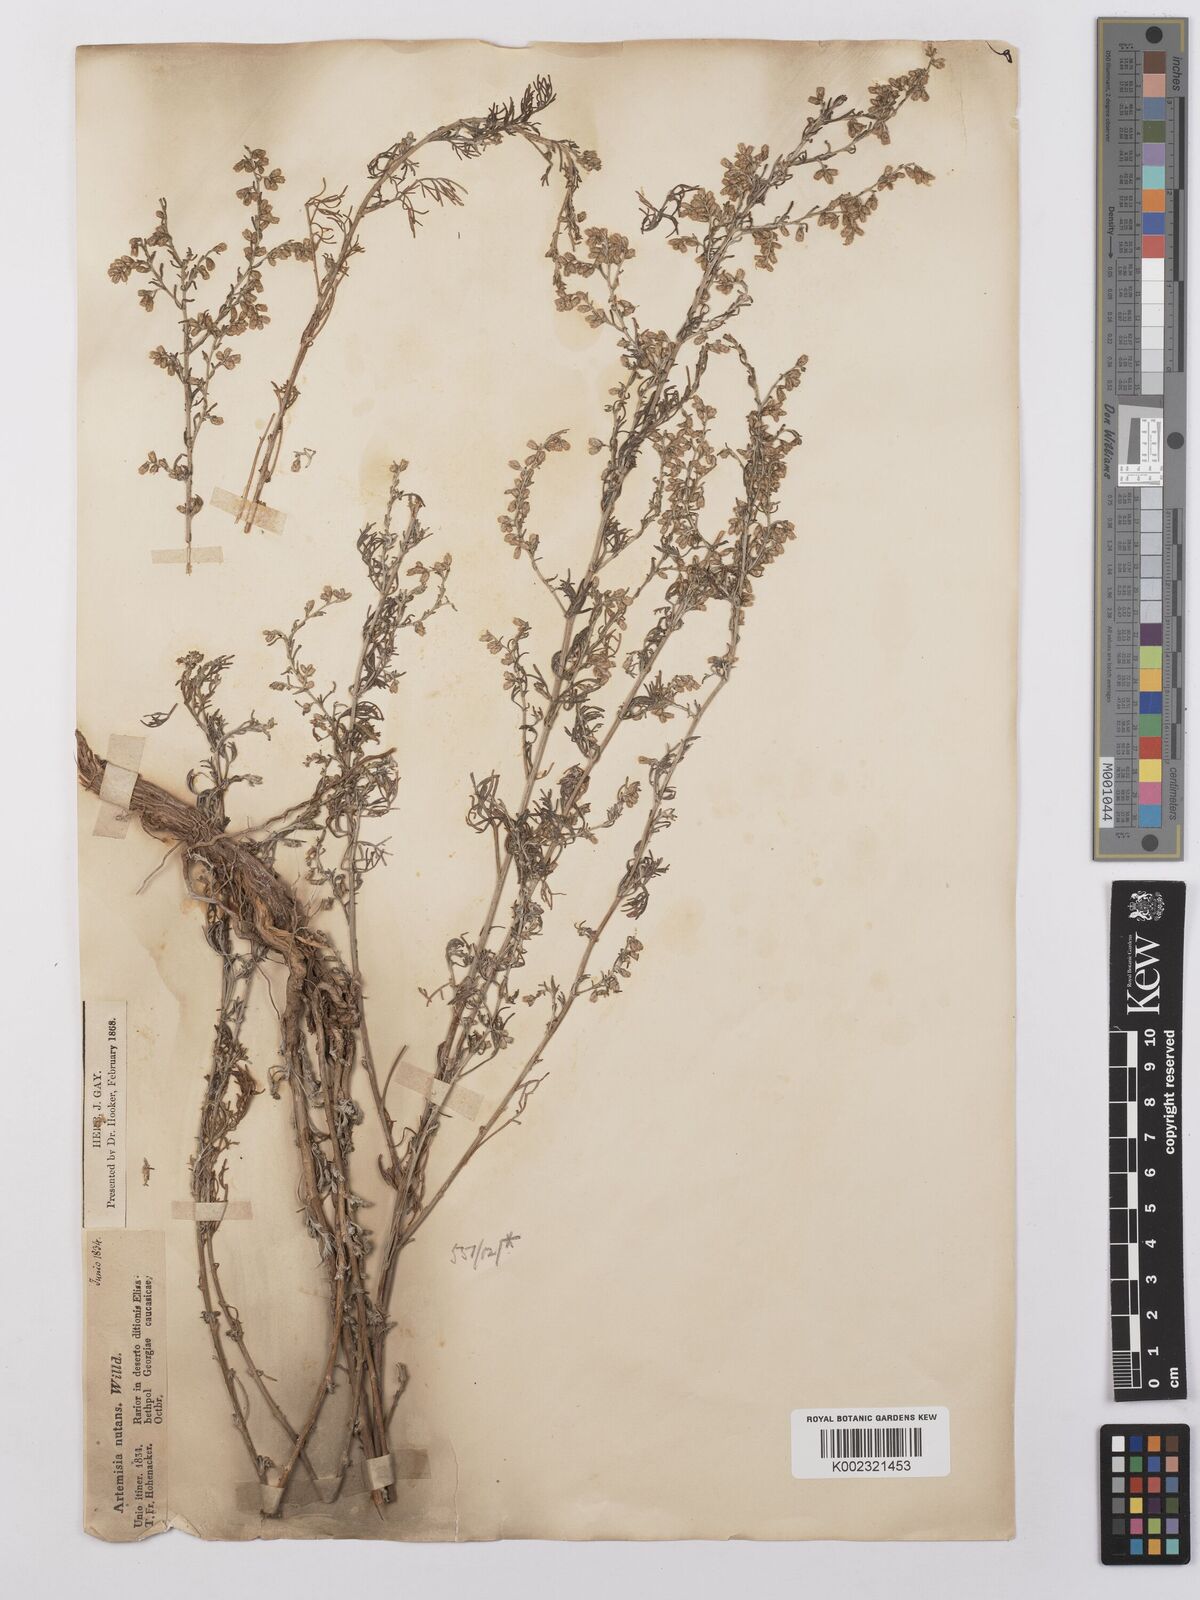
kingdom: Plantae
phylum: Tracheophyta
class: Magnoliopsida
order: Asterales
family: Asteraceae
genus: Artemisia
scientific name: Artemisia nutans
